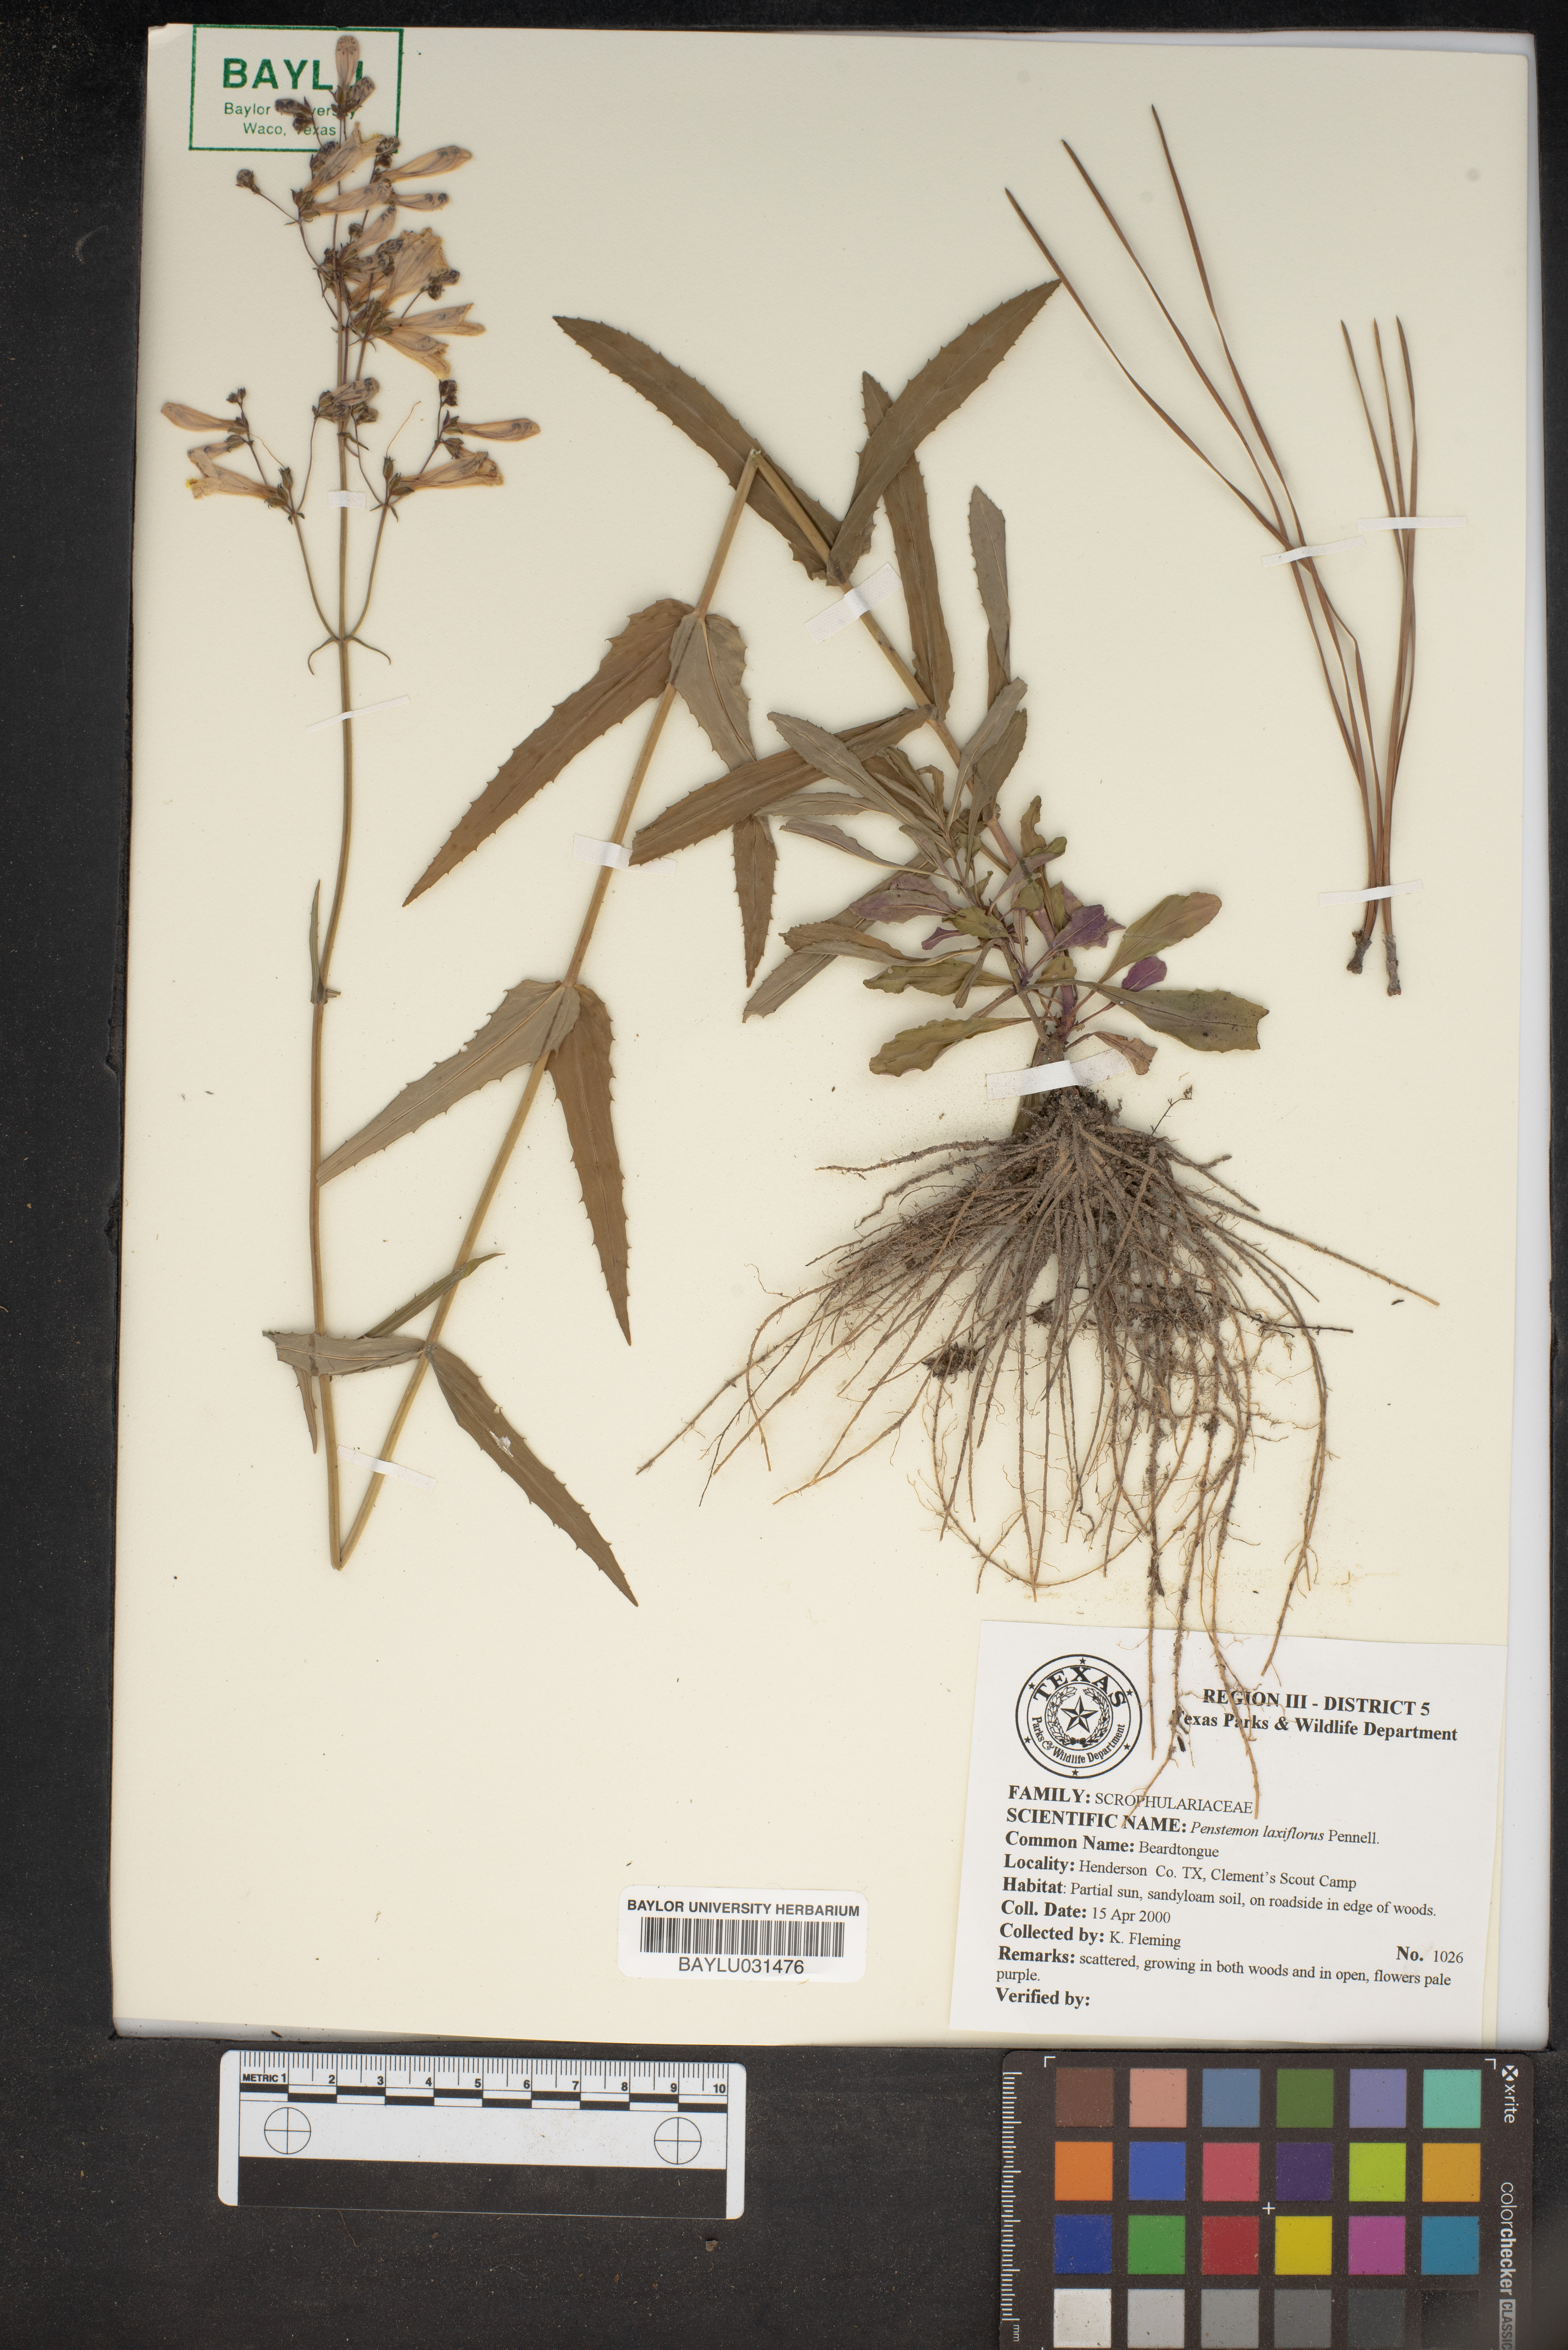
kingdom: Plantae
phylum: Tracheophyta
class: Magnoliopsida
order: Lamiales
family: Plantaginaceae
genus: Penstemon
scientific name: Penstemon laxiflorus
